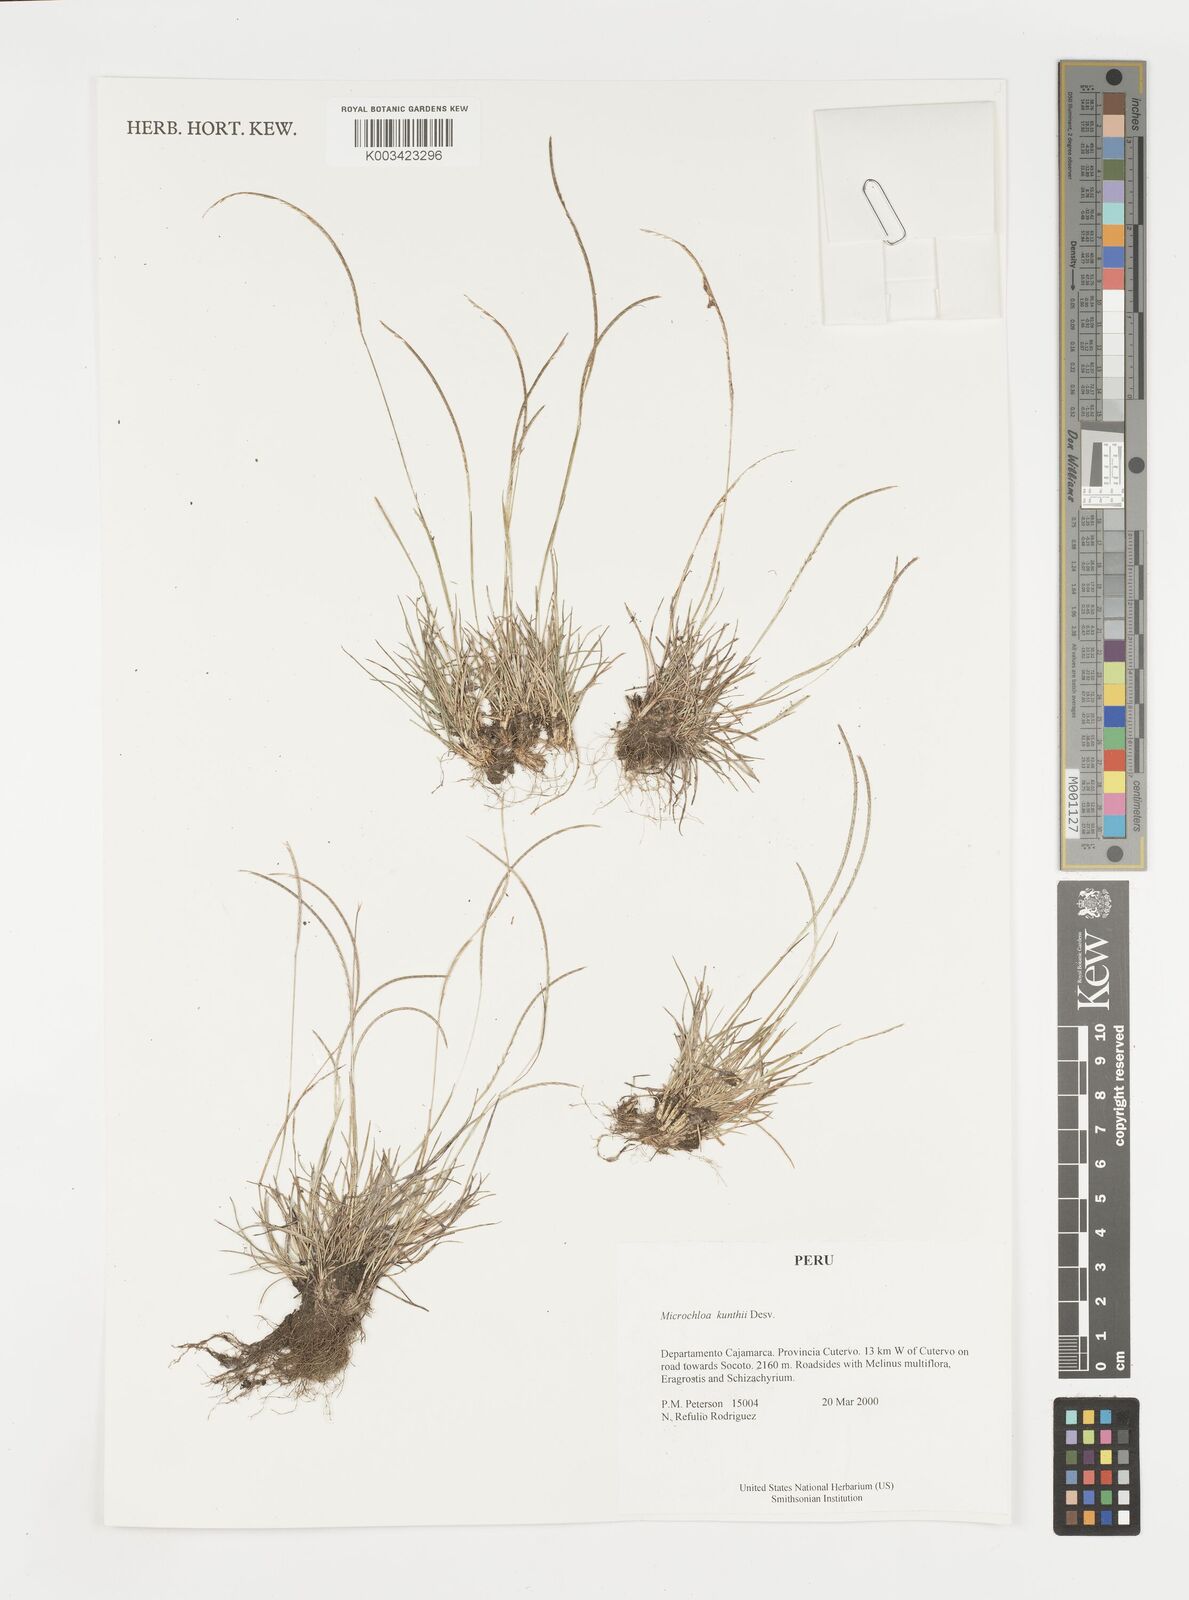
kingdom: Plantae
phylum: Tracheophyta
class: Liliopsida
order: Poales
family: Poaceae
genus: Microchloa
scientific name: Microchloa kunthii
